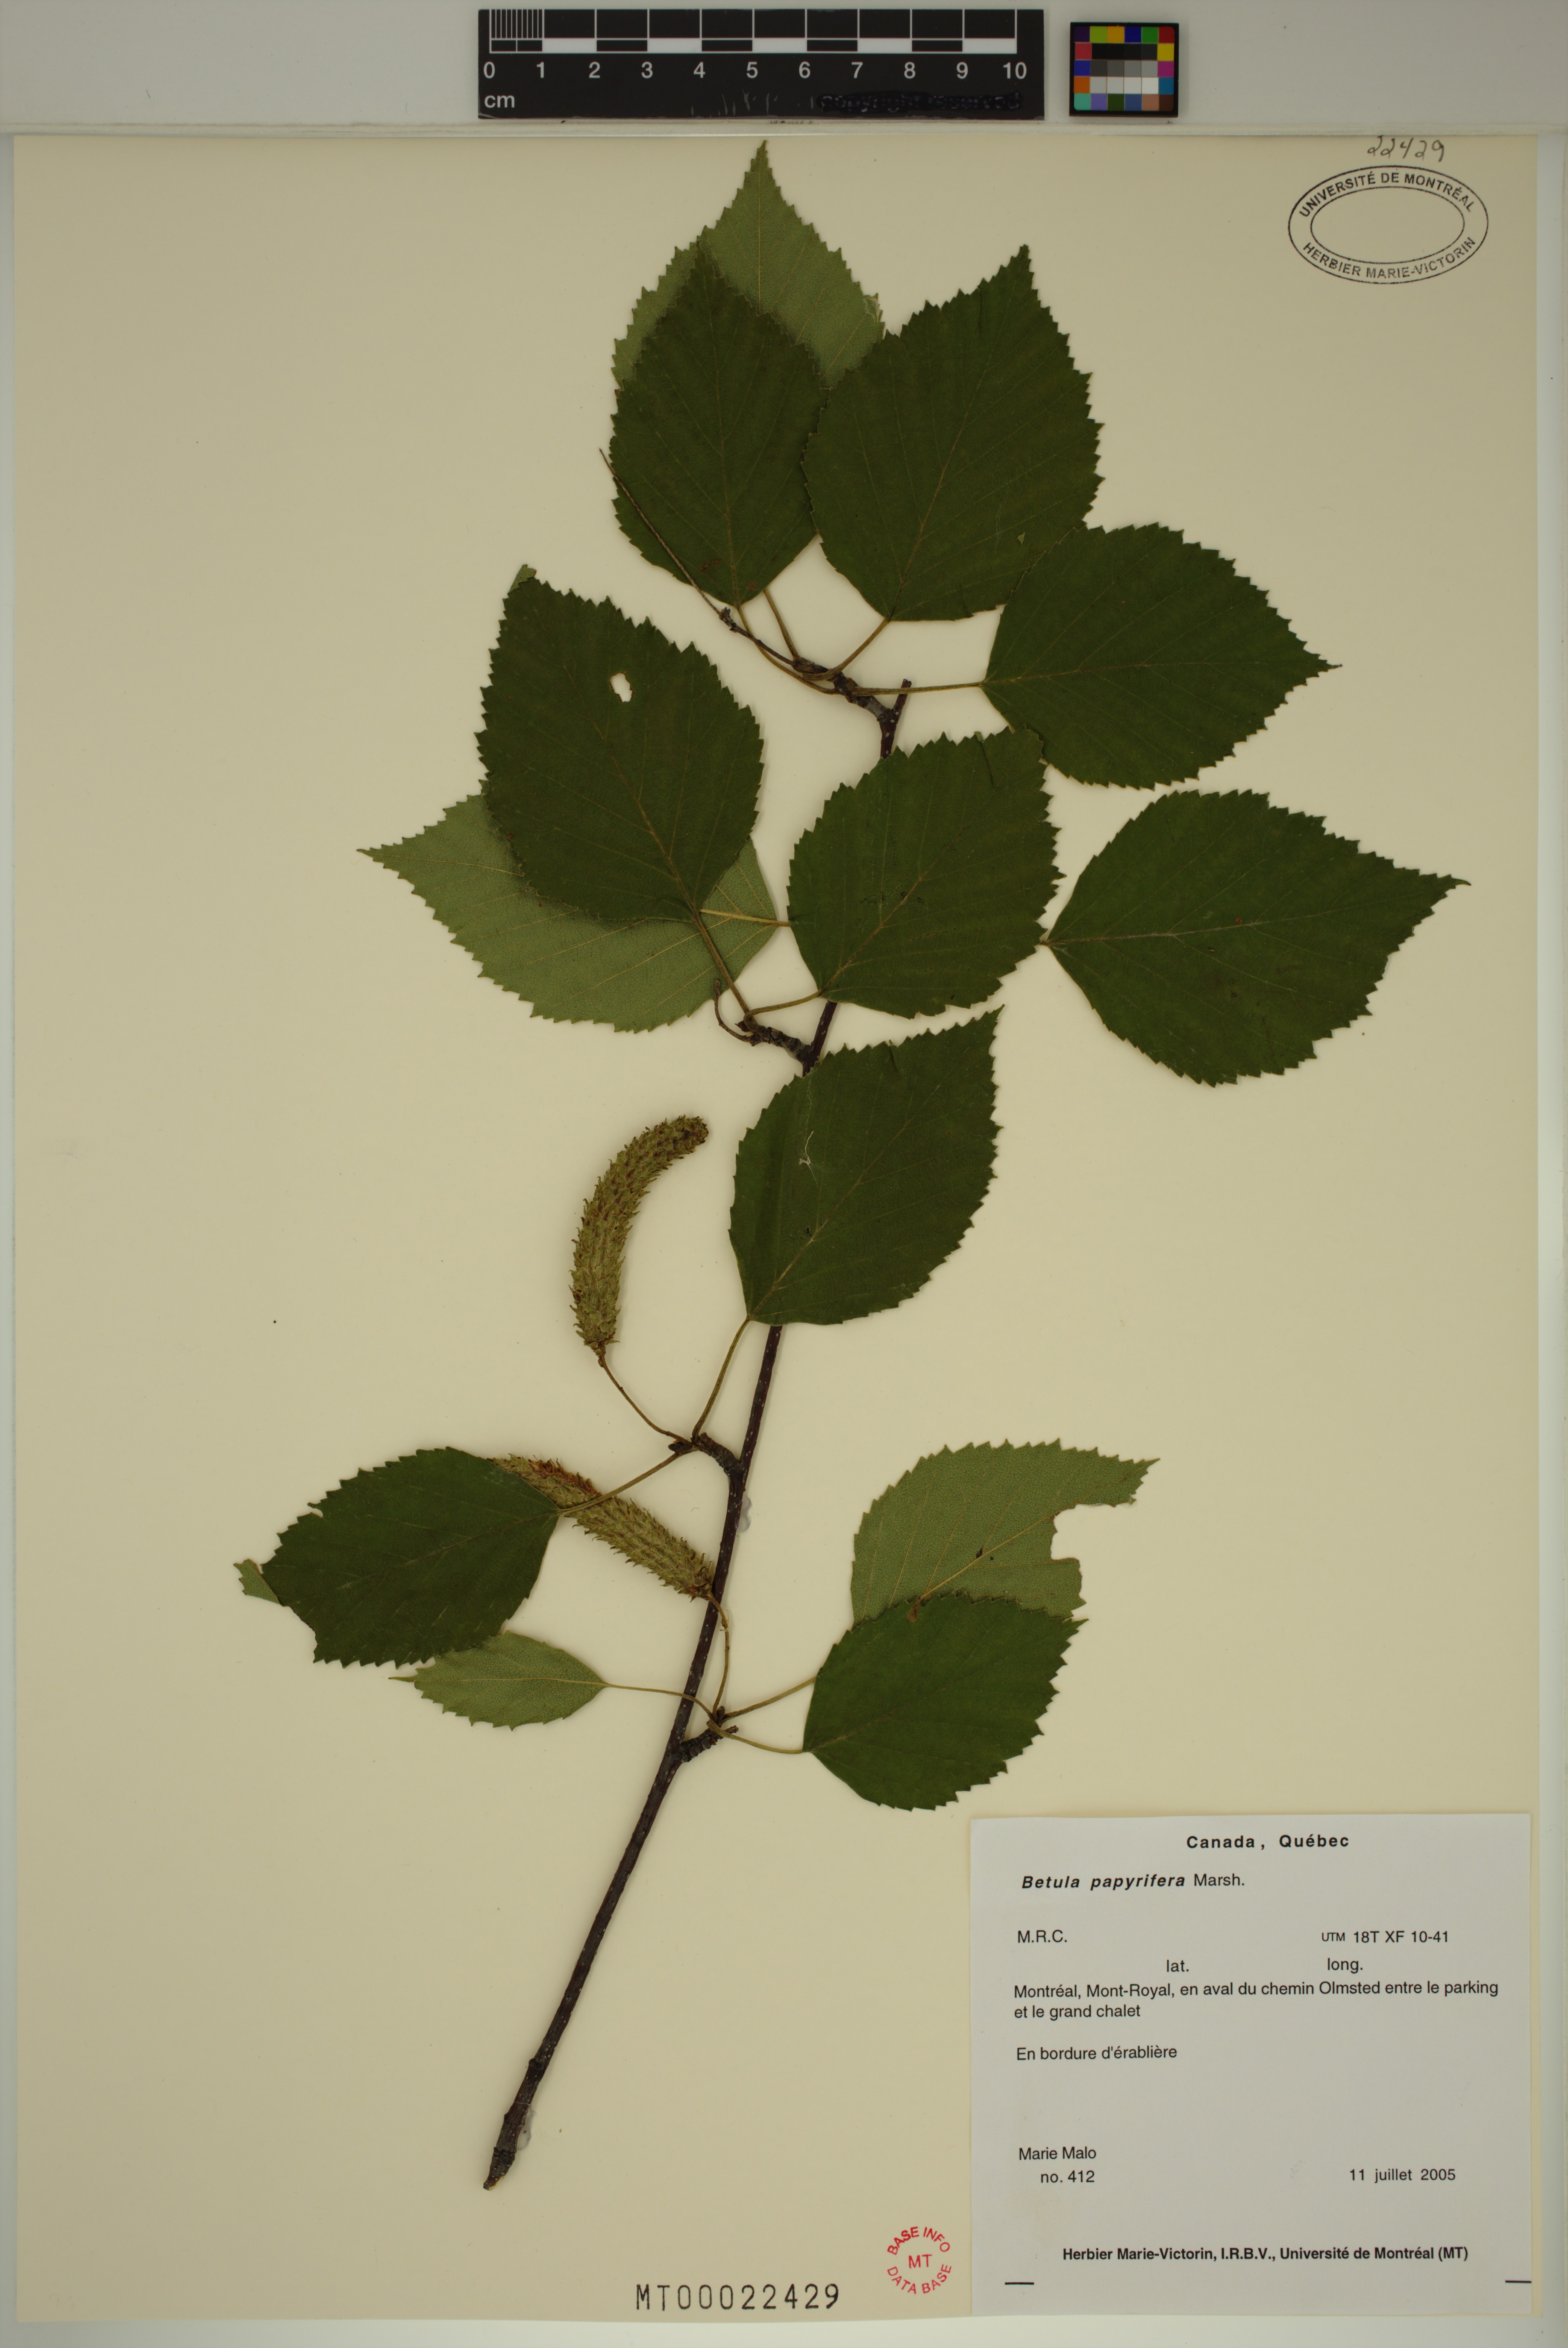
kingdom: Plantae
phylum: Tracheophyta
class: Magnoliopsida
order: Fagales
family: Betulaceae
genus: Betula
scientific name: Betula papyrifera
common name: Paper birch
